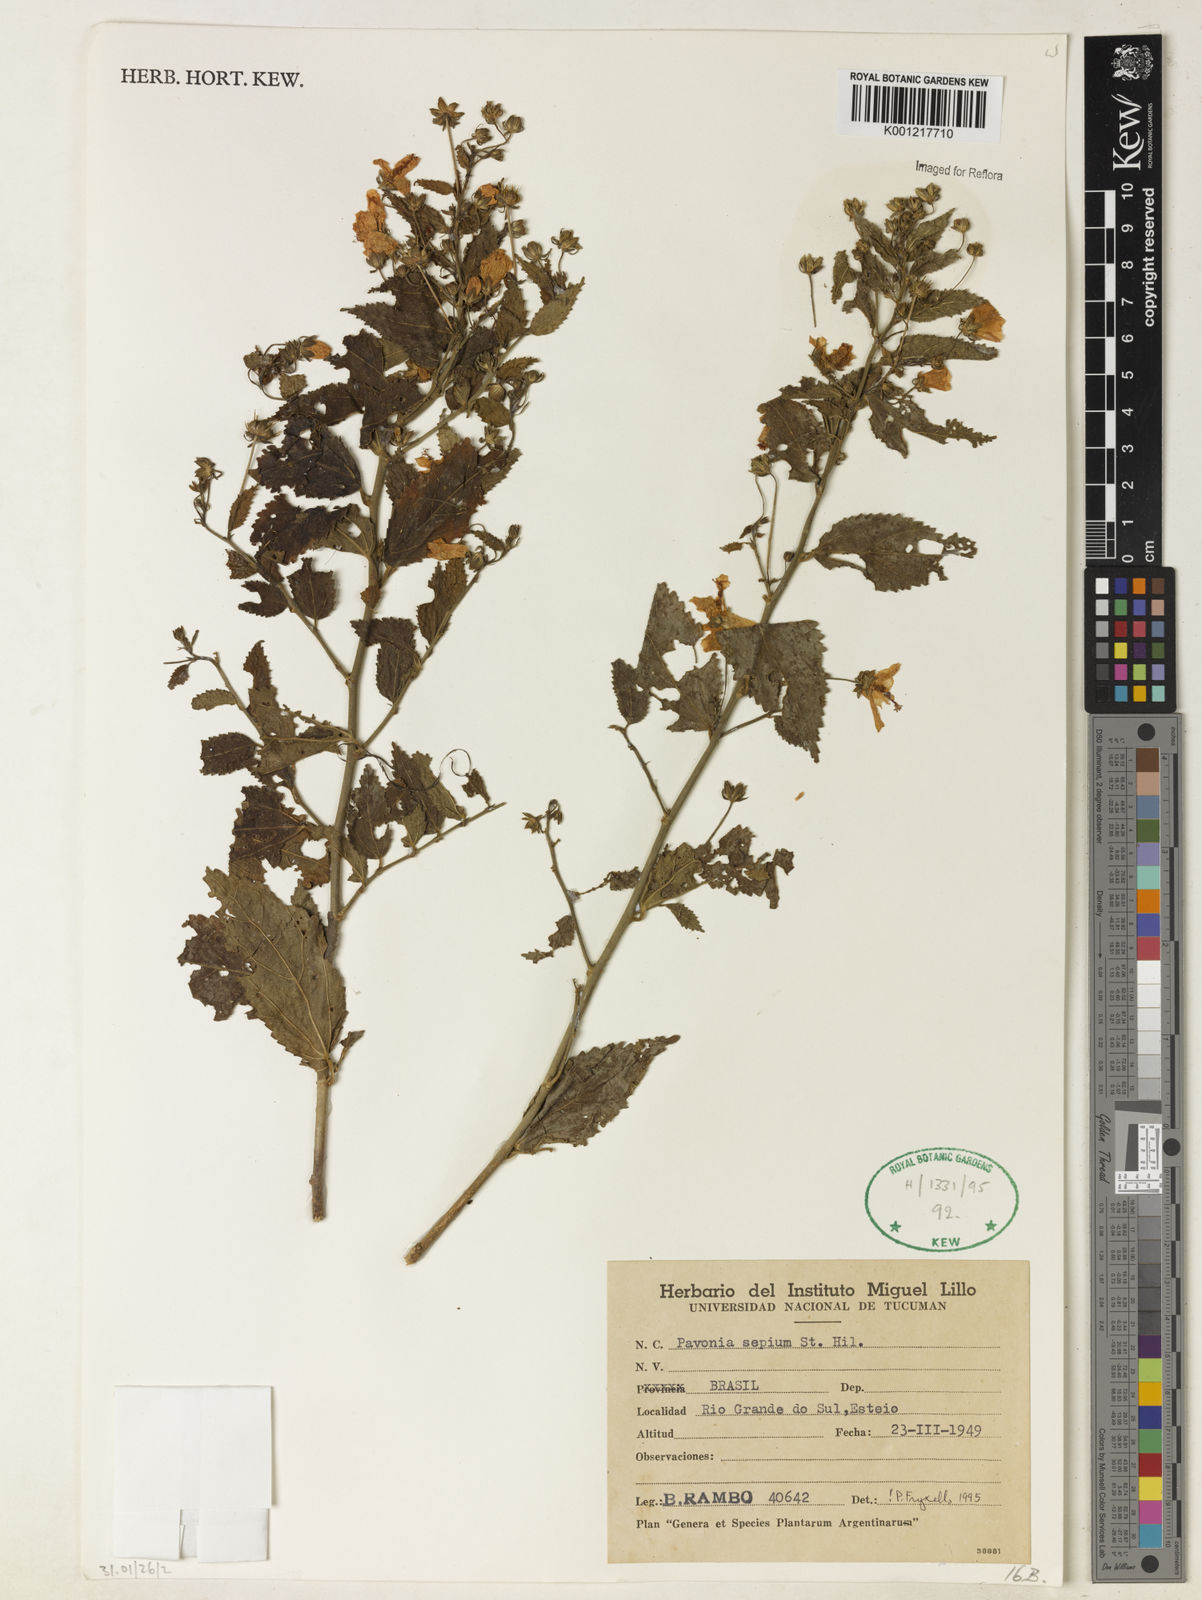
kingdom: Plantae
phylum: Tracheophyta
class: Magnoliopsida
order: Malvales
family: Malvaceae
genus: Pavonia
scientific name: Pavonia sepium
